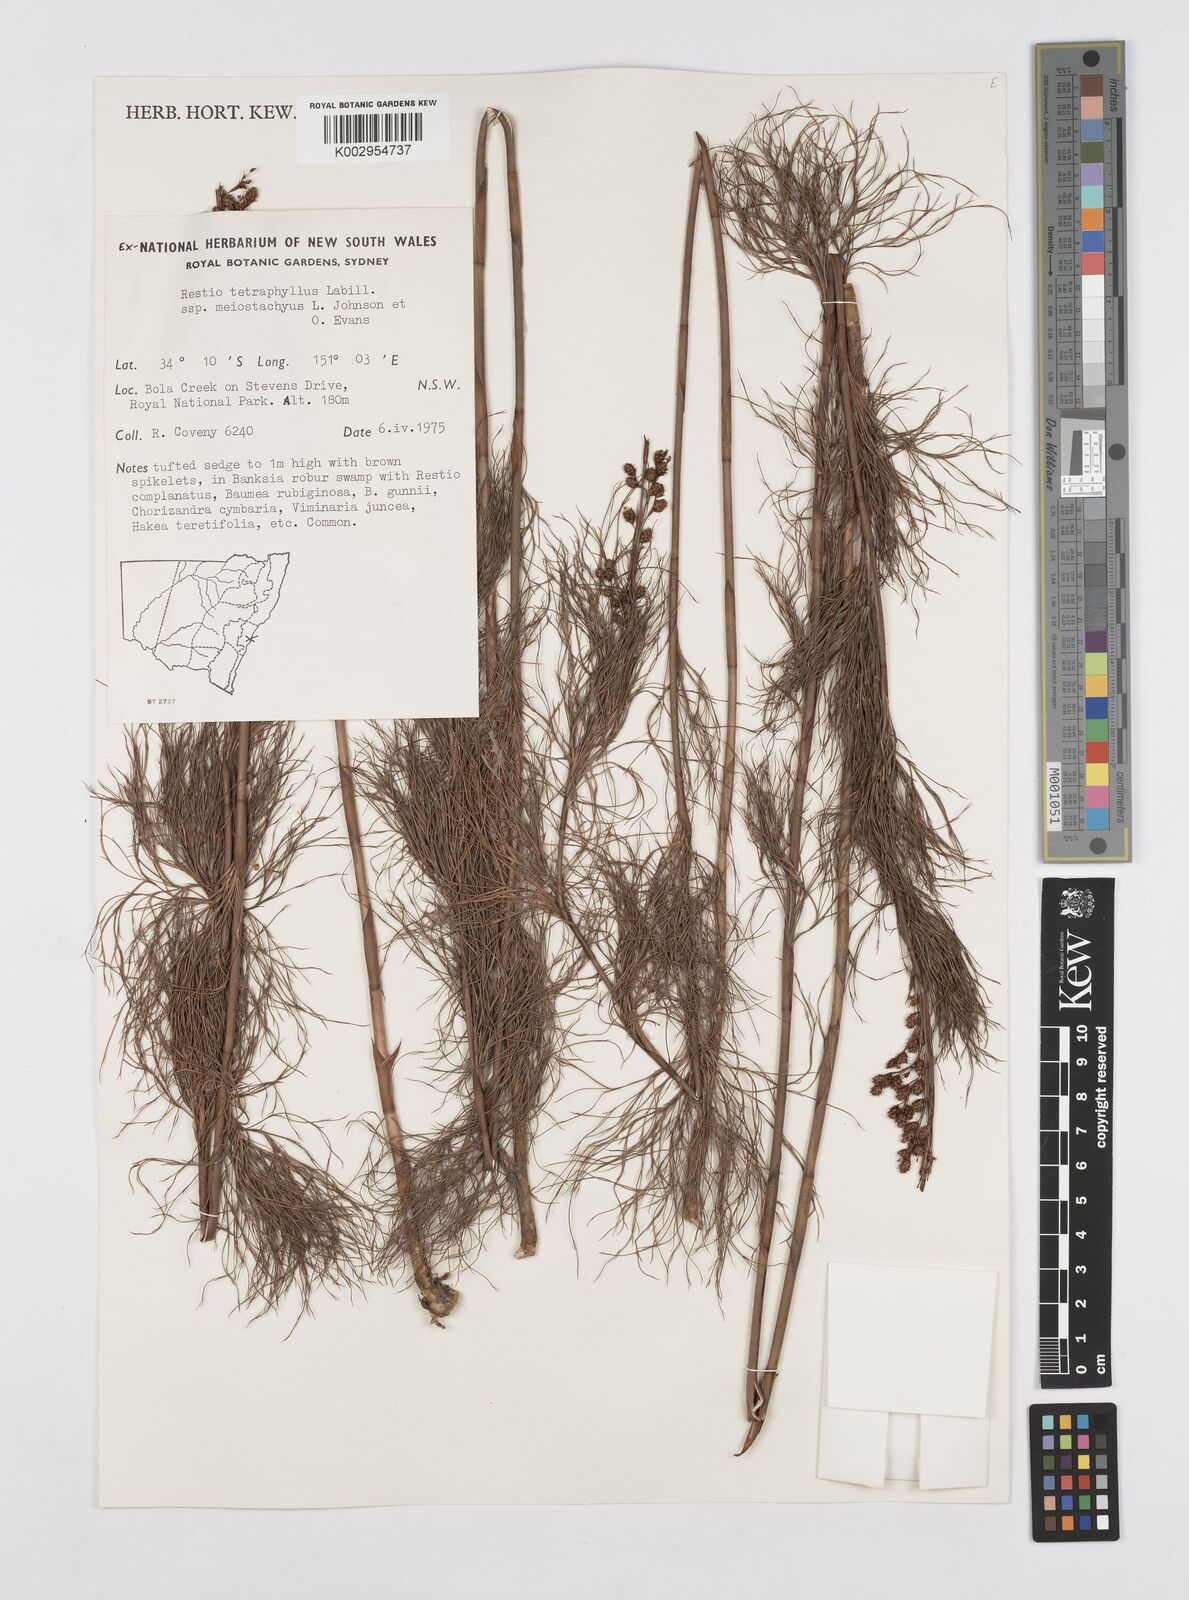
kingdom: Plantae
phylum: Tracheophyta
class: Liliopsida
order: Poales
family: Restionaceae
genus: Baloskion
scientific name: Baloskion tetraphyllum
